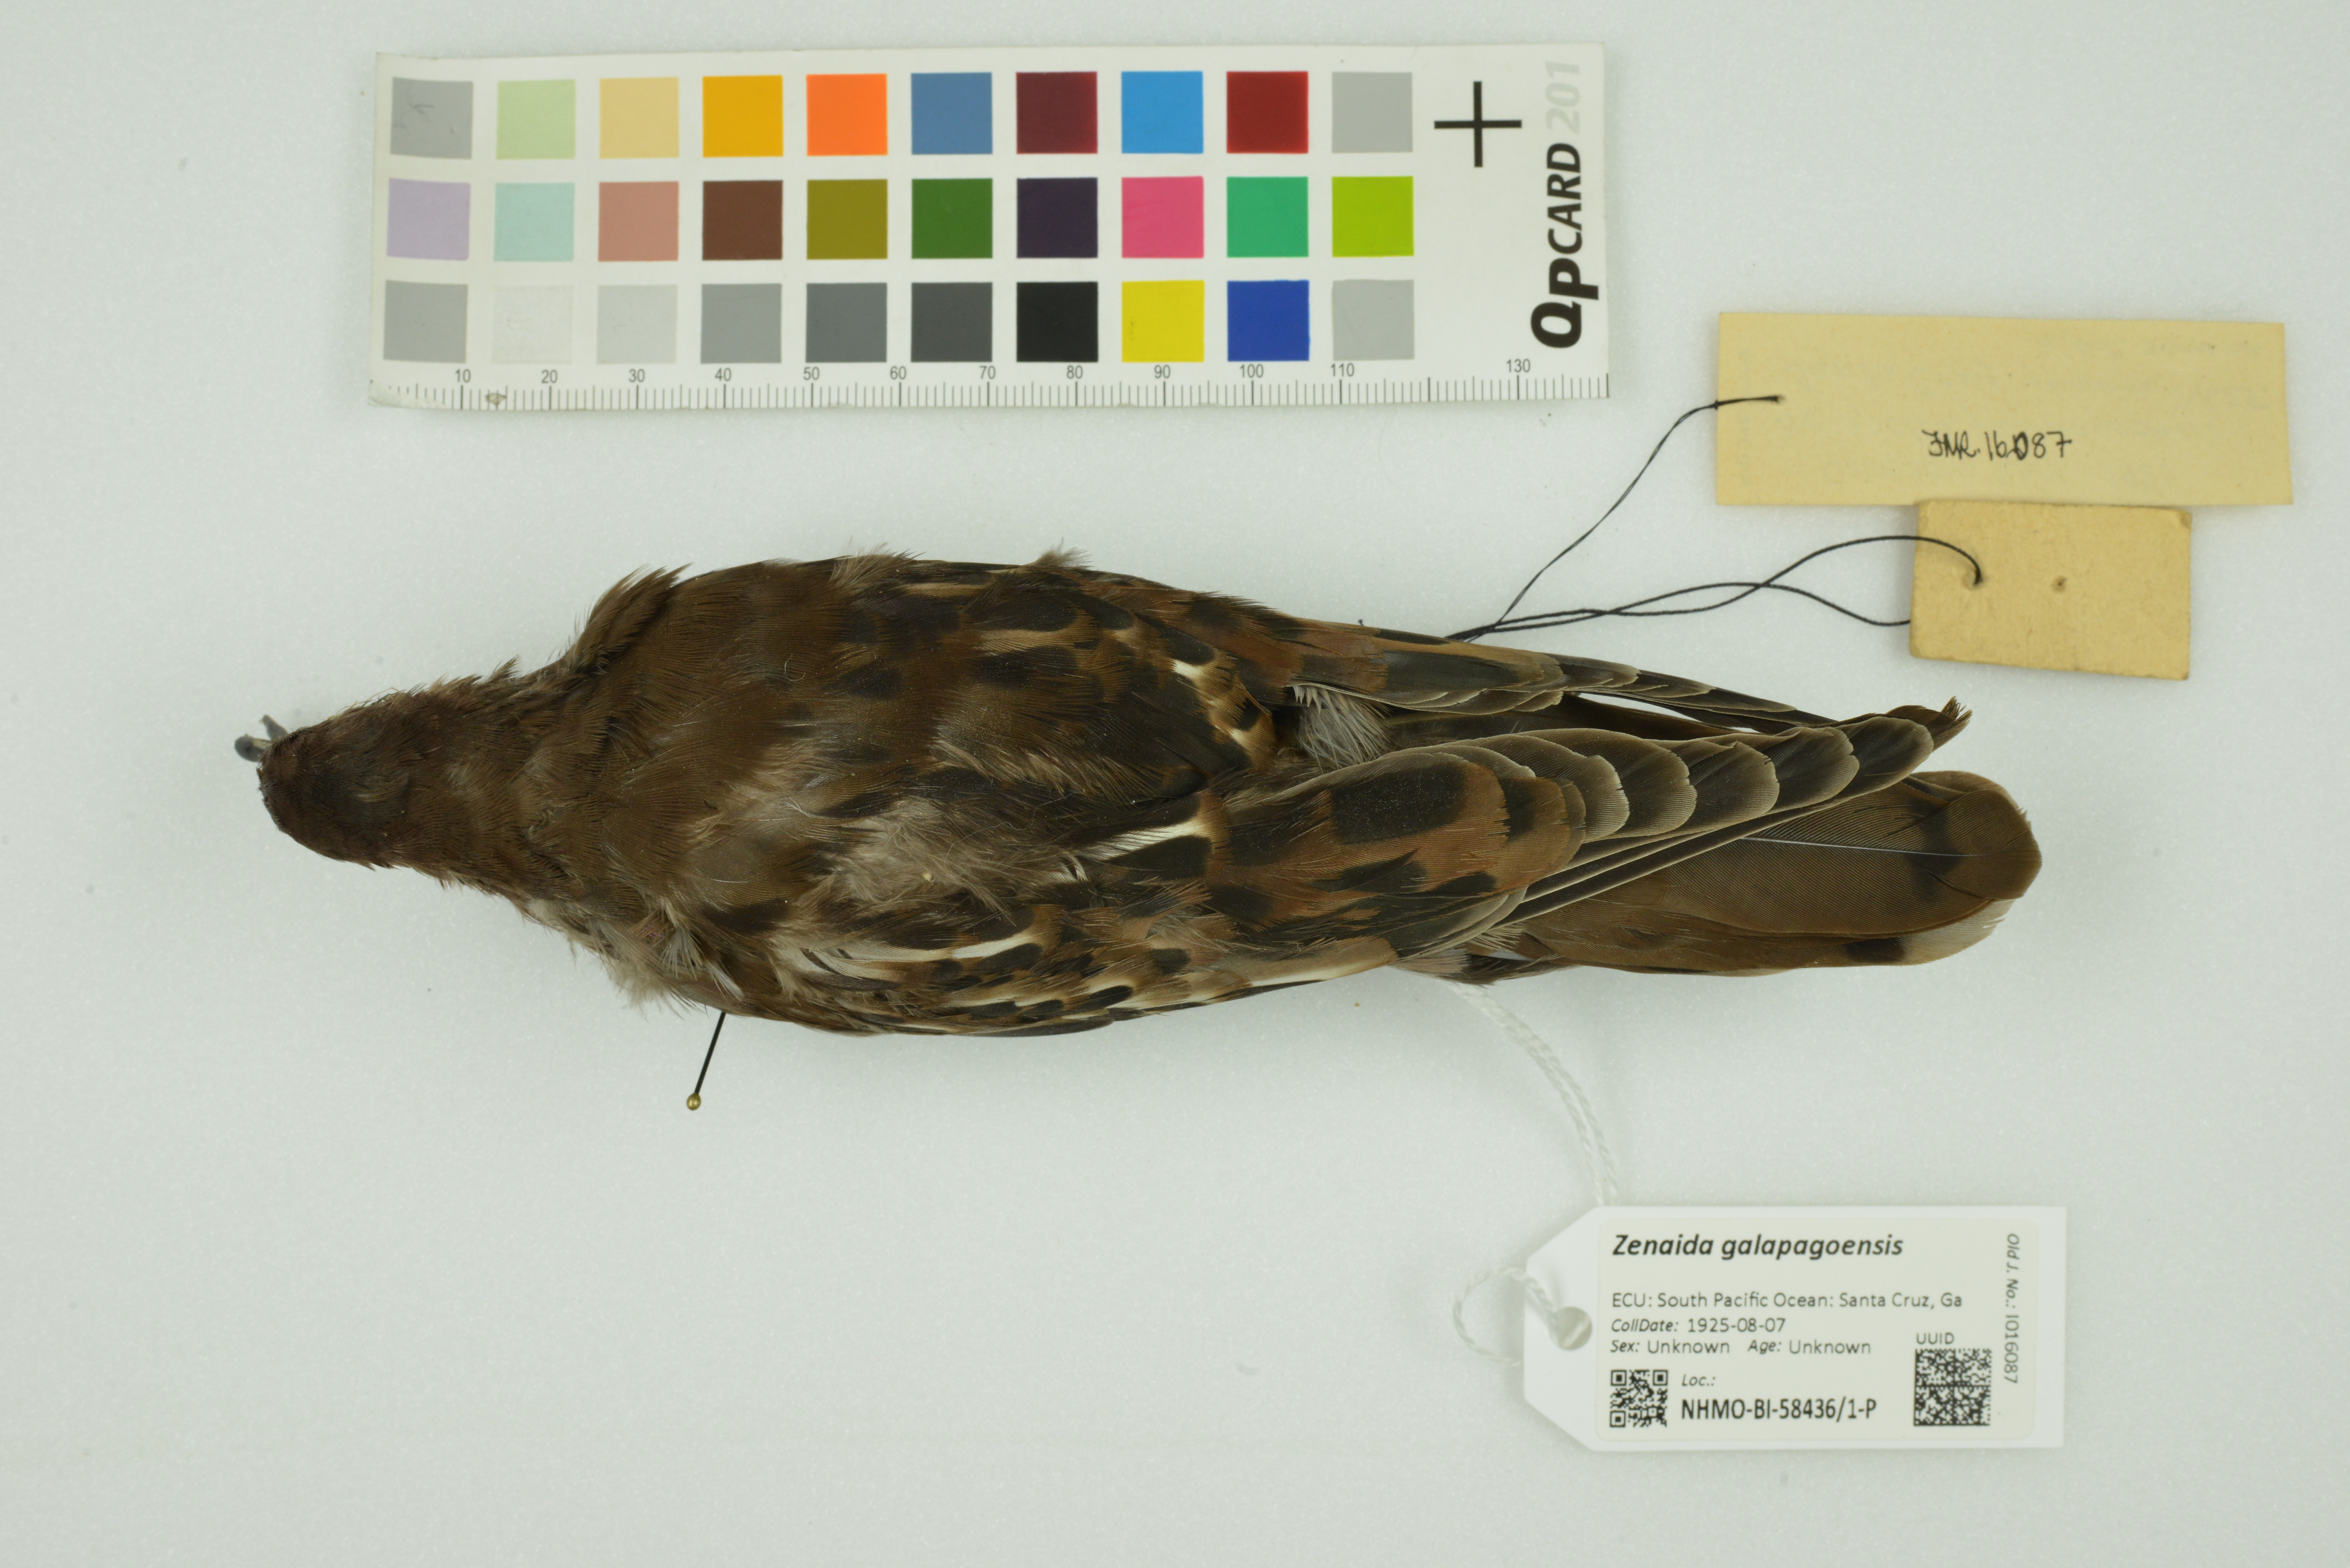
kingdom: Animalia
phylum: Chordata
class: Aves
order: Columbiformes
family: Columbidae
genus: Zenaida
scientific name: Zenaida galapagoensis
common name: Galapagos dove
